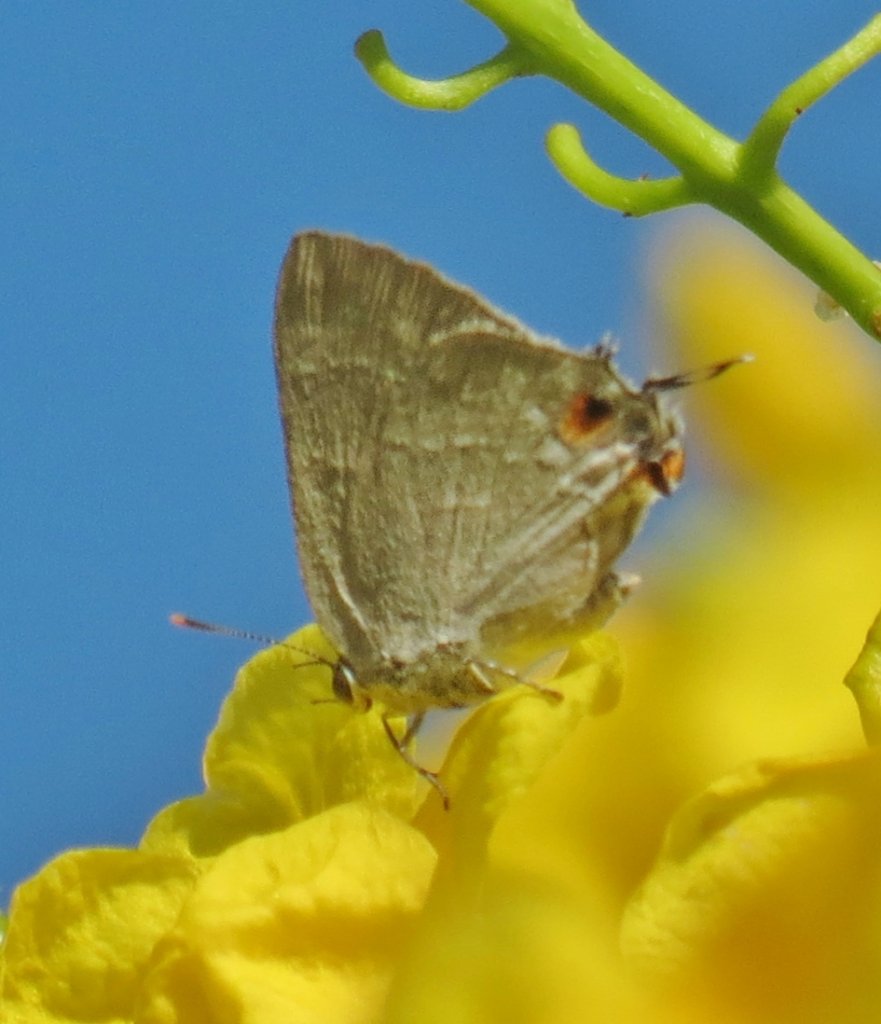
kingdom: Animalia
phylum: Arthropoda
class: Insecta
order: Lepidoptera
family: Lycaenidae
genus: Thecla
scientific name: Thecla marius
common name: Marius Hairstreak
